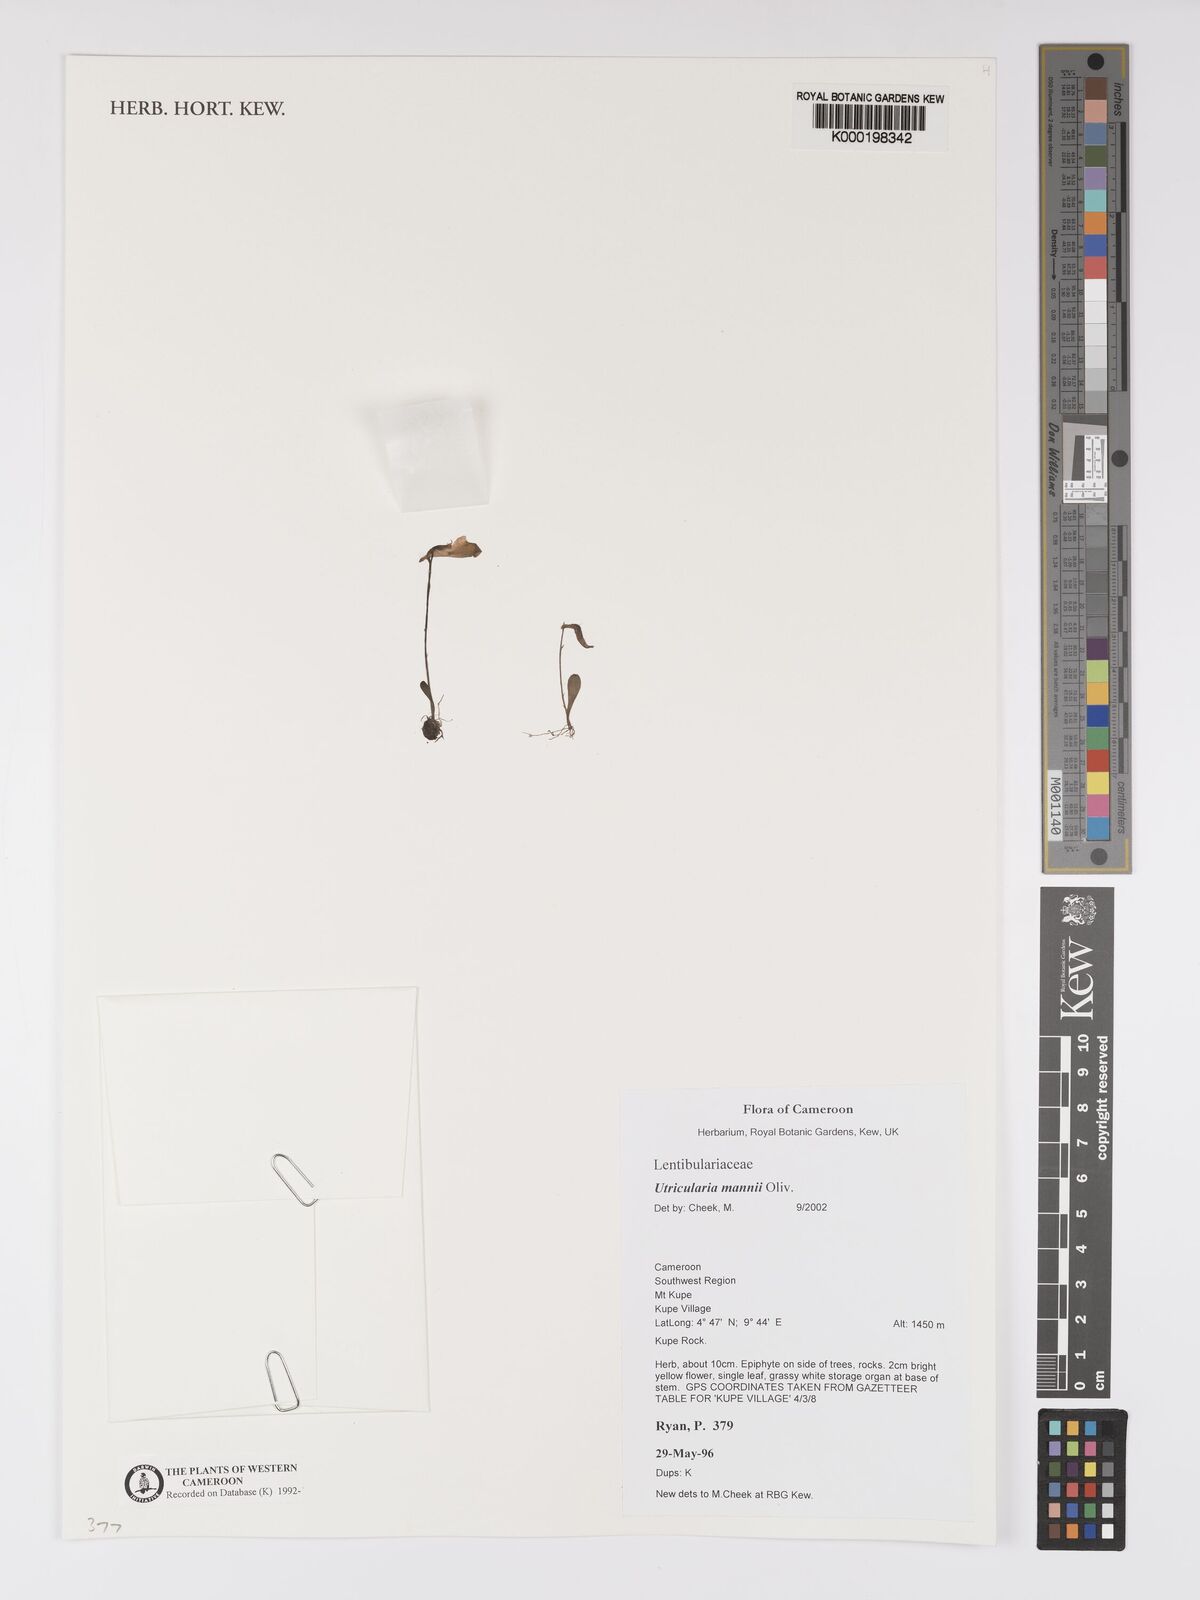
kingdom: Plantae
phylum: Tracheophyta
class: Magnoliopsida
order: Lamiales
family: Lentibulariaceae
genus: Utricularia
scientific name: Utricularia mannii
